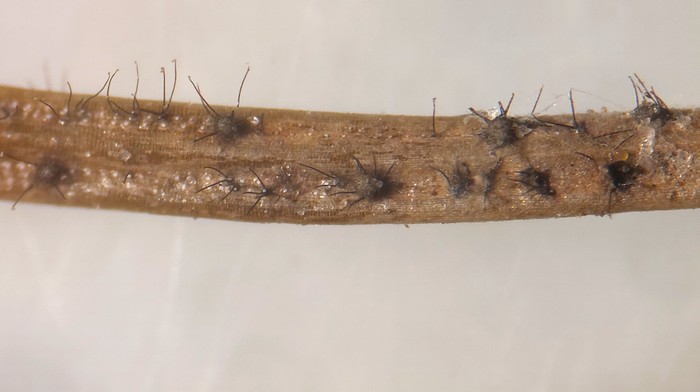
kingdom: Fungi
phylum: Ascomycota
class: Eurotiomycetes
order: Eurotiales
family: Aspergillaceae
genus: Penicillium
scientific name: Penicillium glaucoalbidum
